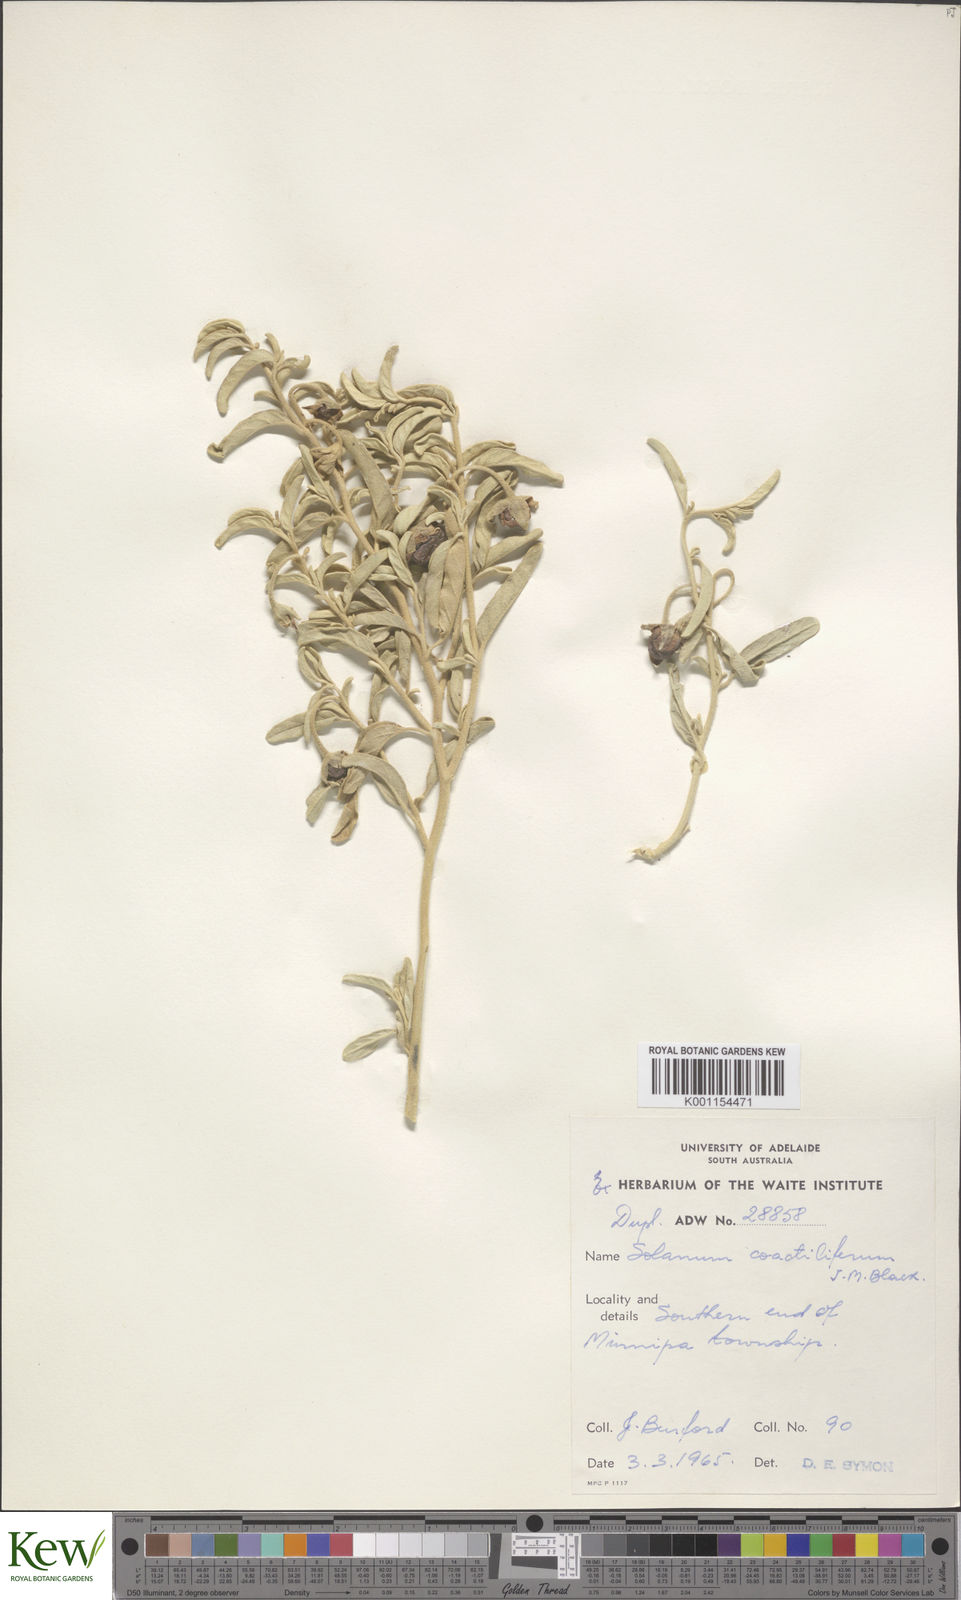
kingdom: Plantae
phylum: Tracheophyta
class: Magnoliopsida
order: Solanales
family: Solanaceae
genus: Solanum
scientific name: Solanum coactiliferum
